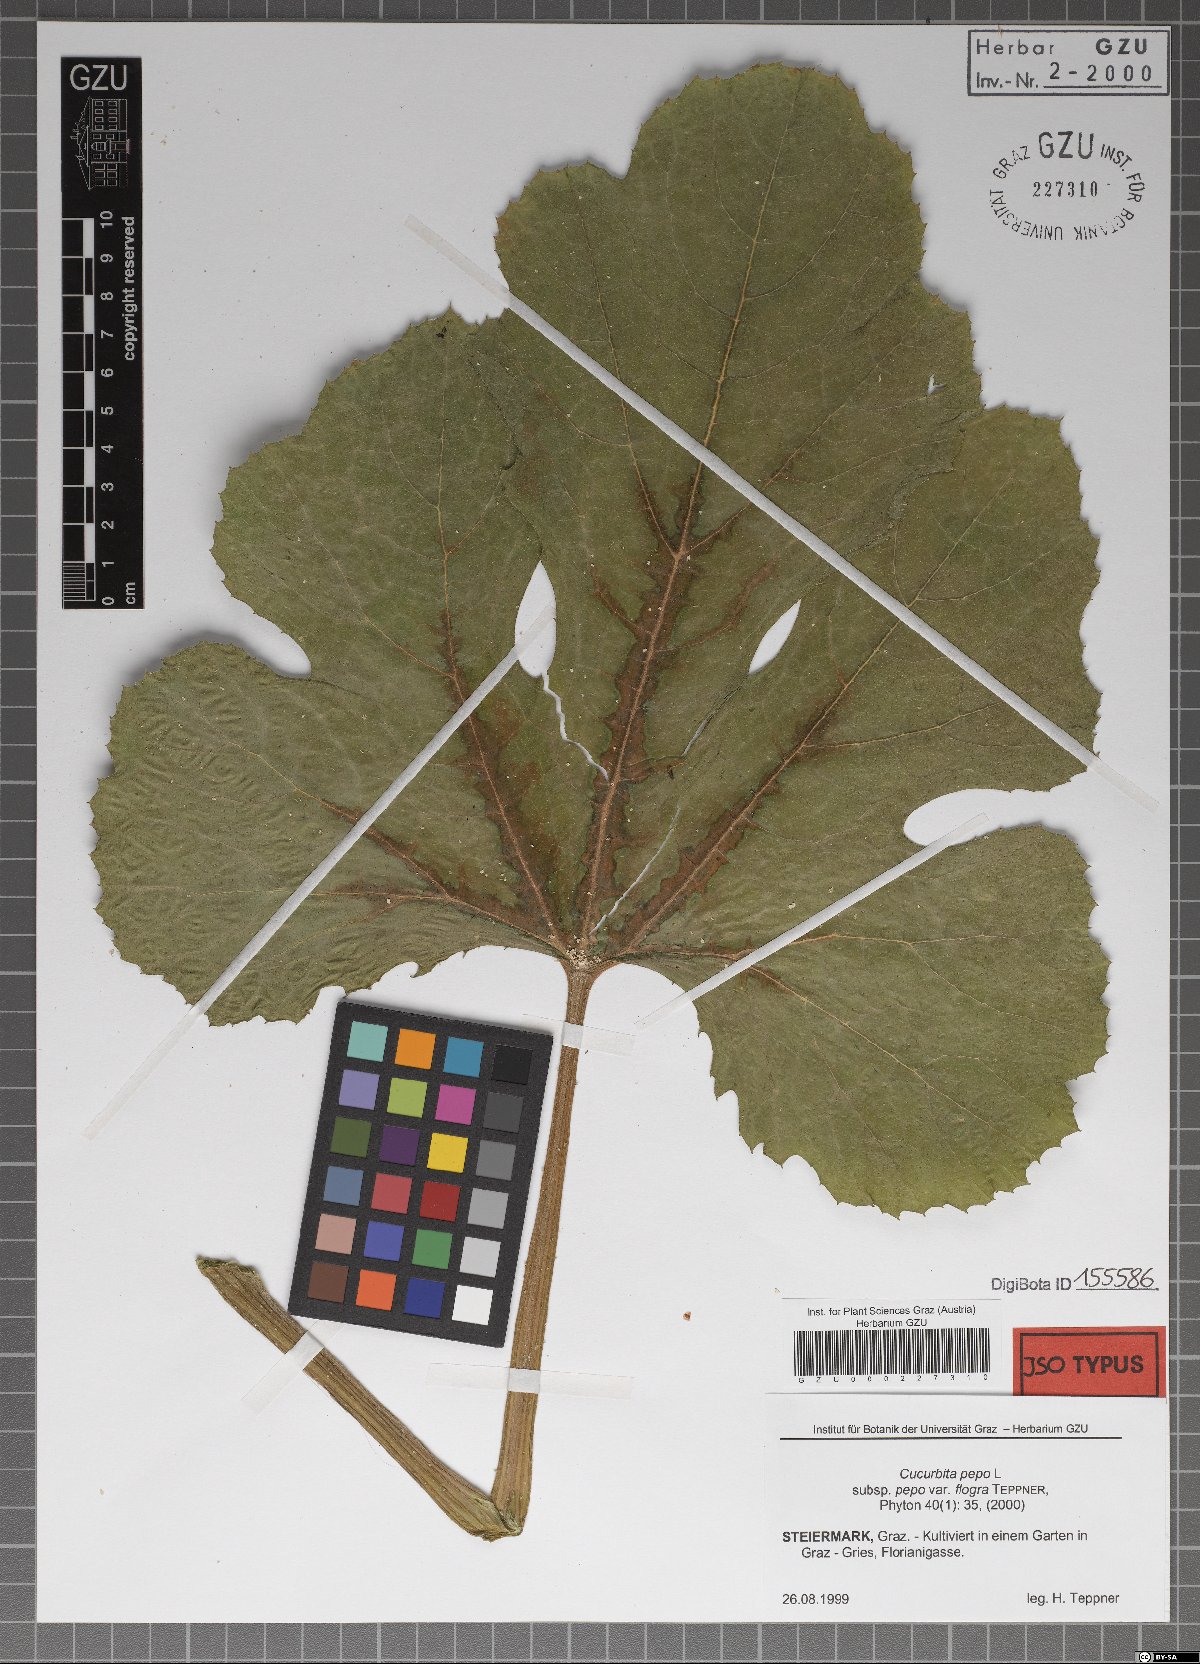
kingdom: Plantae
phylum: Tracheophyta
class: Magnoliopsida
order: Cucurbitales
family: Cucurbitaceae
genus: Cucurbita
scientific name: Cucurbita pepo
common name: Marrow
